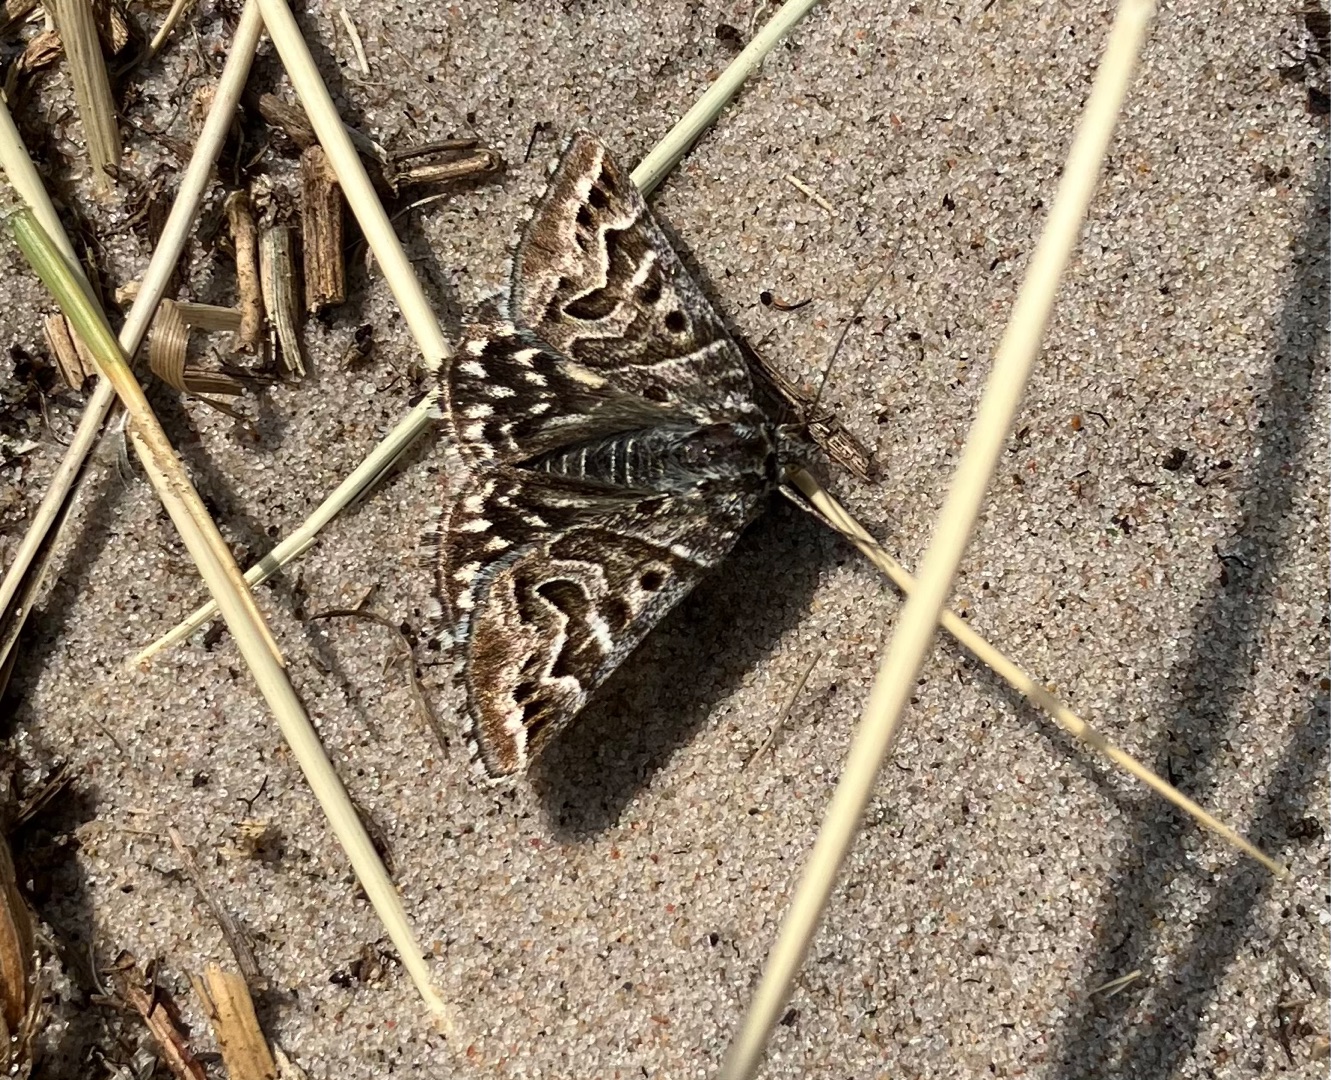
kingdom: Animalia
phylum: Arthropoda
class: Insecta
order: Lepidoptera
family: Erebidae
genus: Callistege
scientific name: Callistege mi
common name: Marmoreret kløverugle
